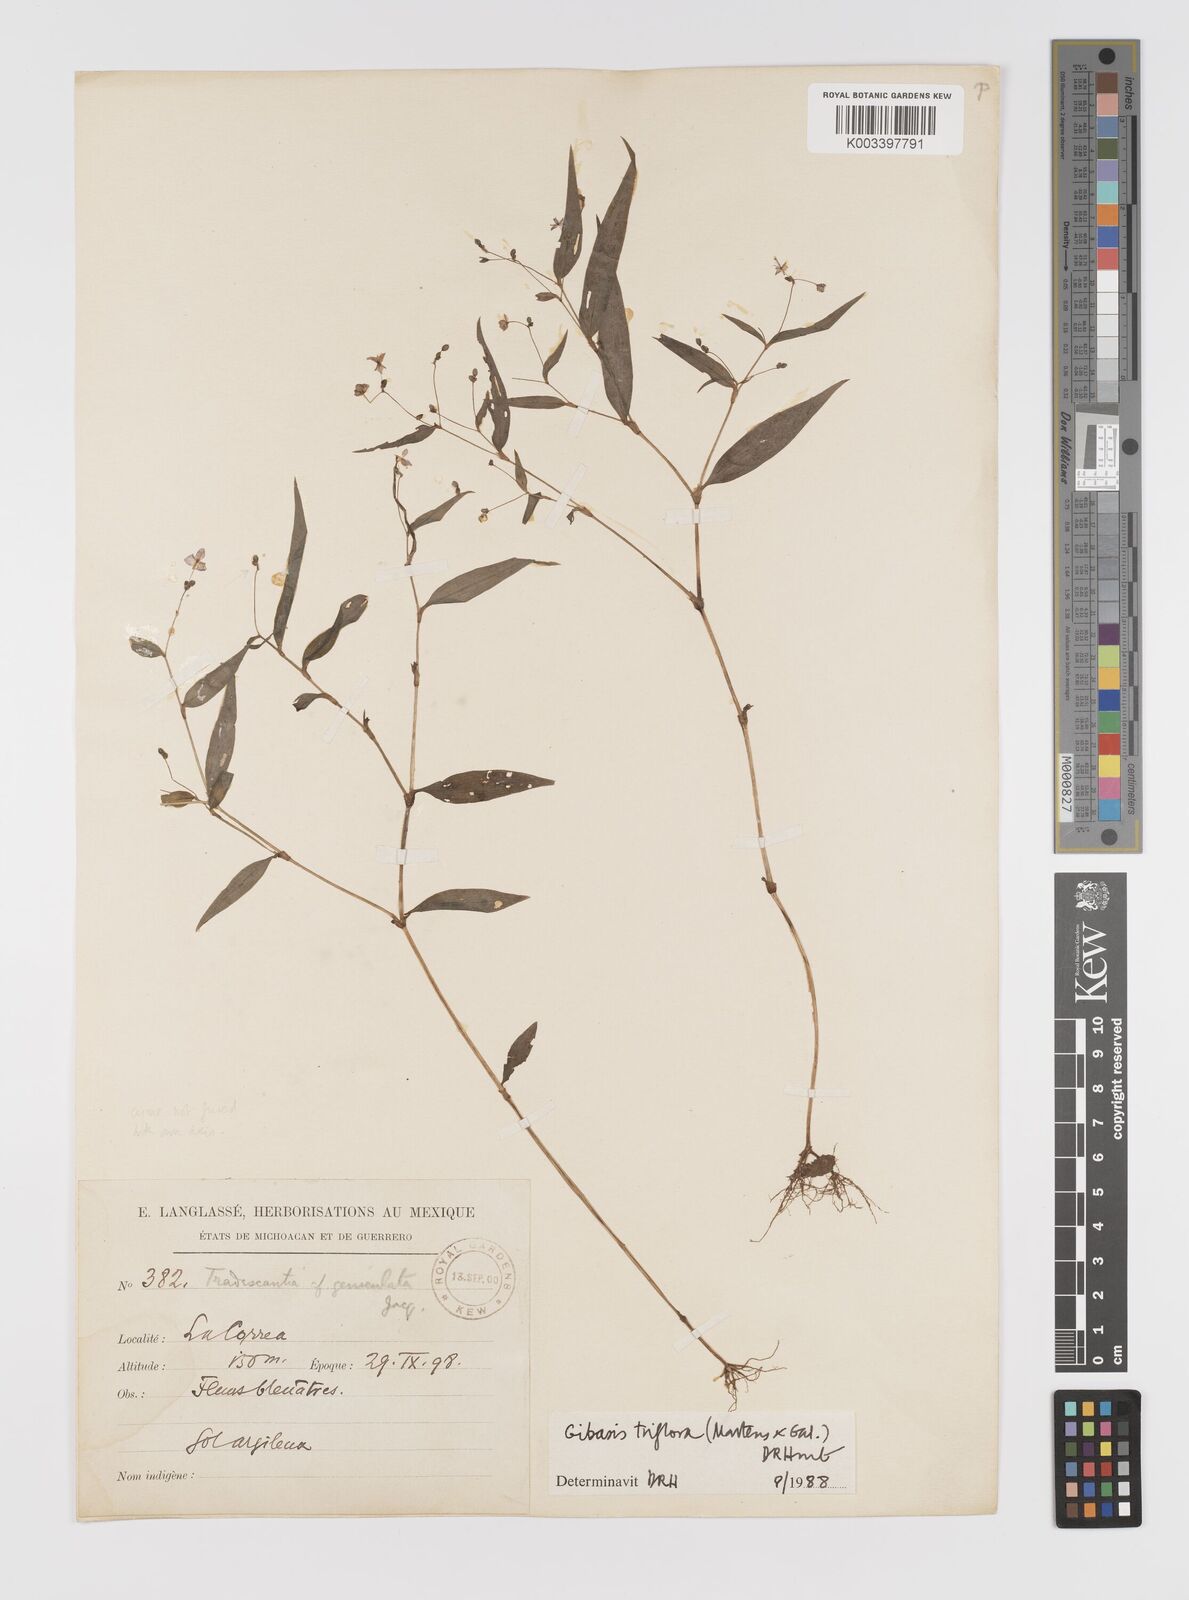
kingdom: Plantae
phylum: Tracheophyta
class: Liliopsida
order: Commelinales
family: Commelinaceae
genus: Gibasis
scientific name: Gibasis triflora
